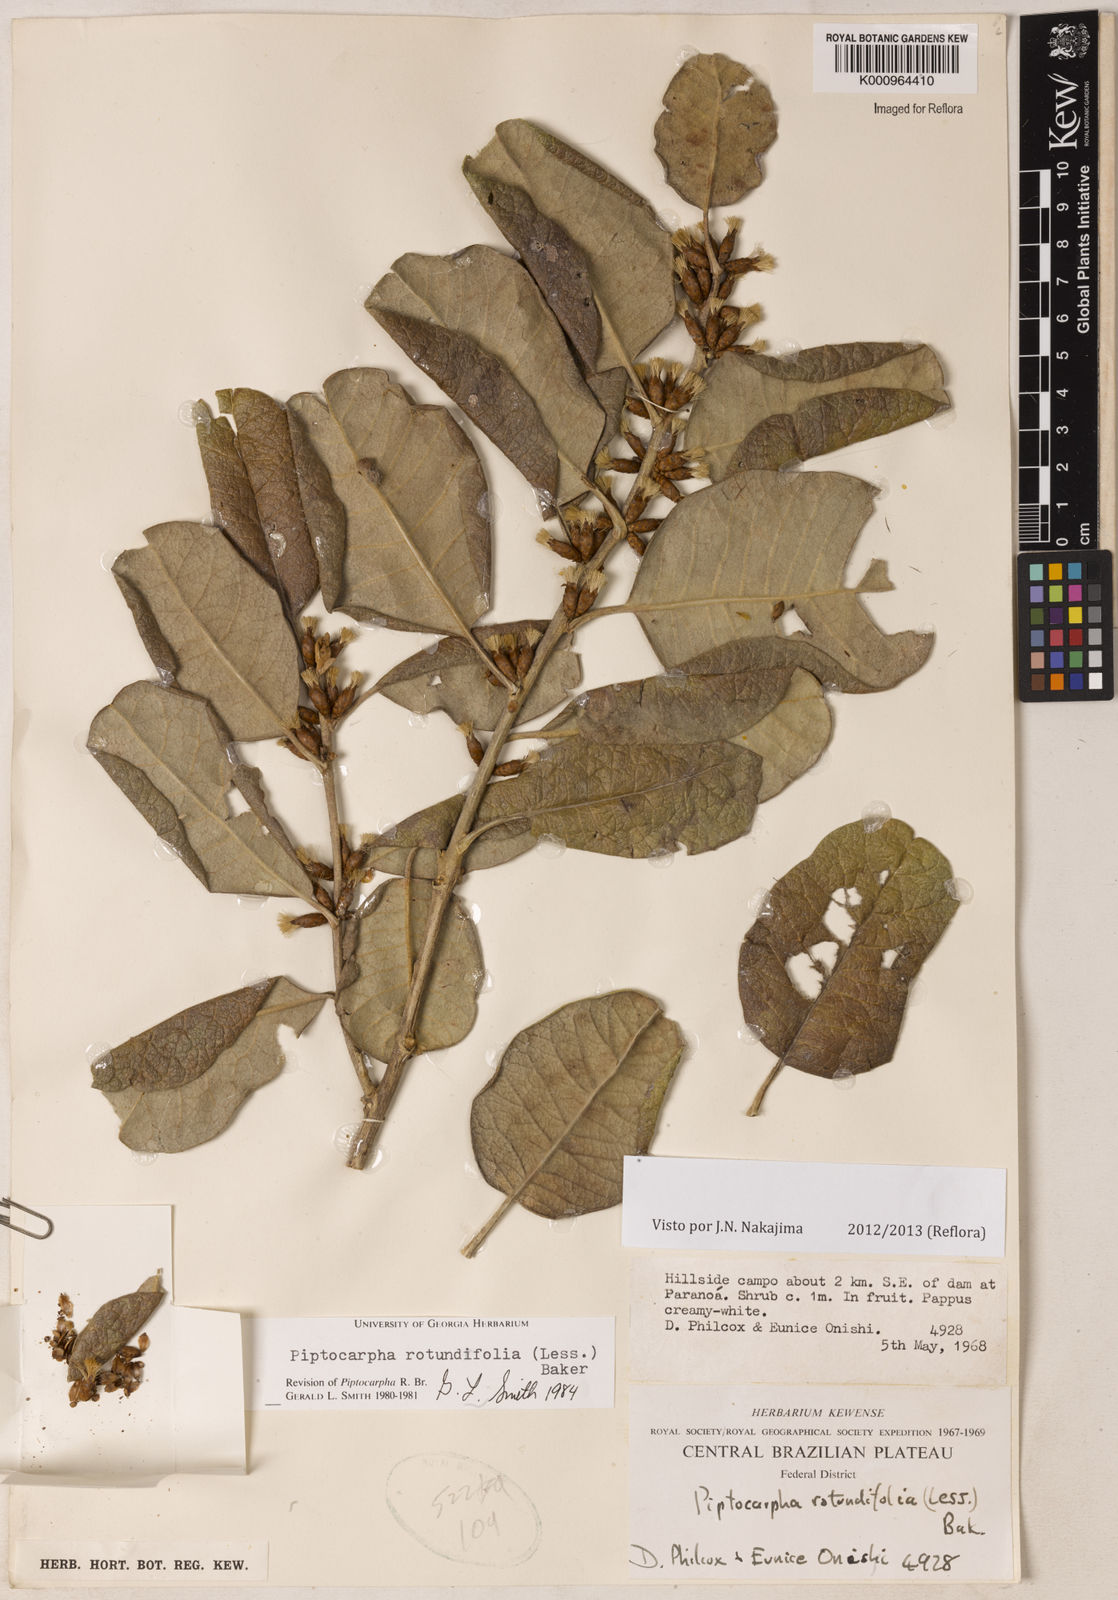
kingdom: Plantae
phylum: Tracheophyta
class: Magnoliopsida
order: Asterales
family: Asteraceae
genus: Piptocarpha
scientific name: Piptocarpha rotundifolia
